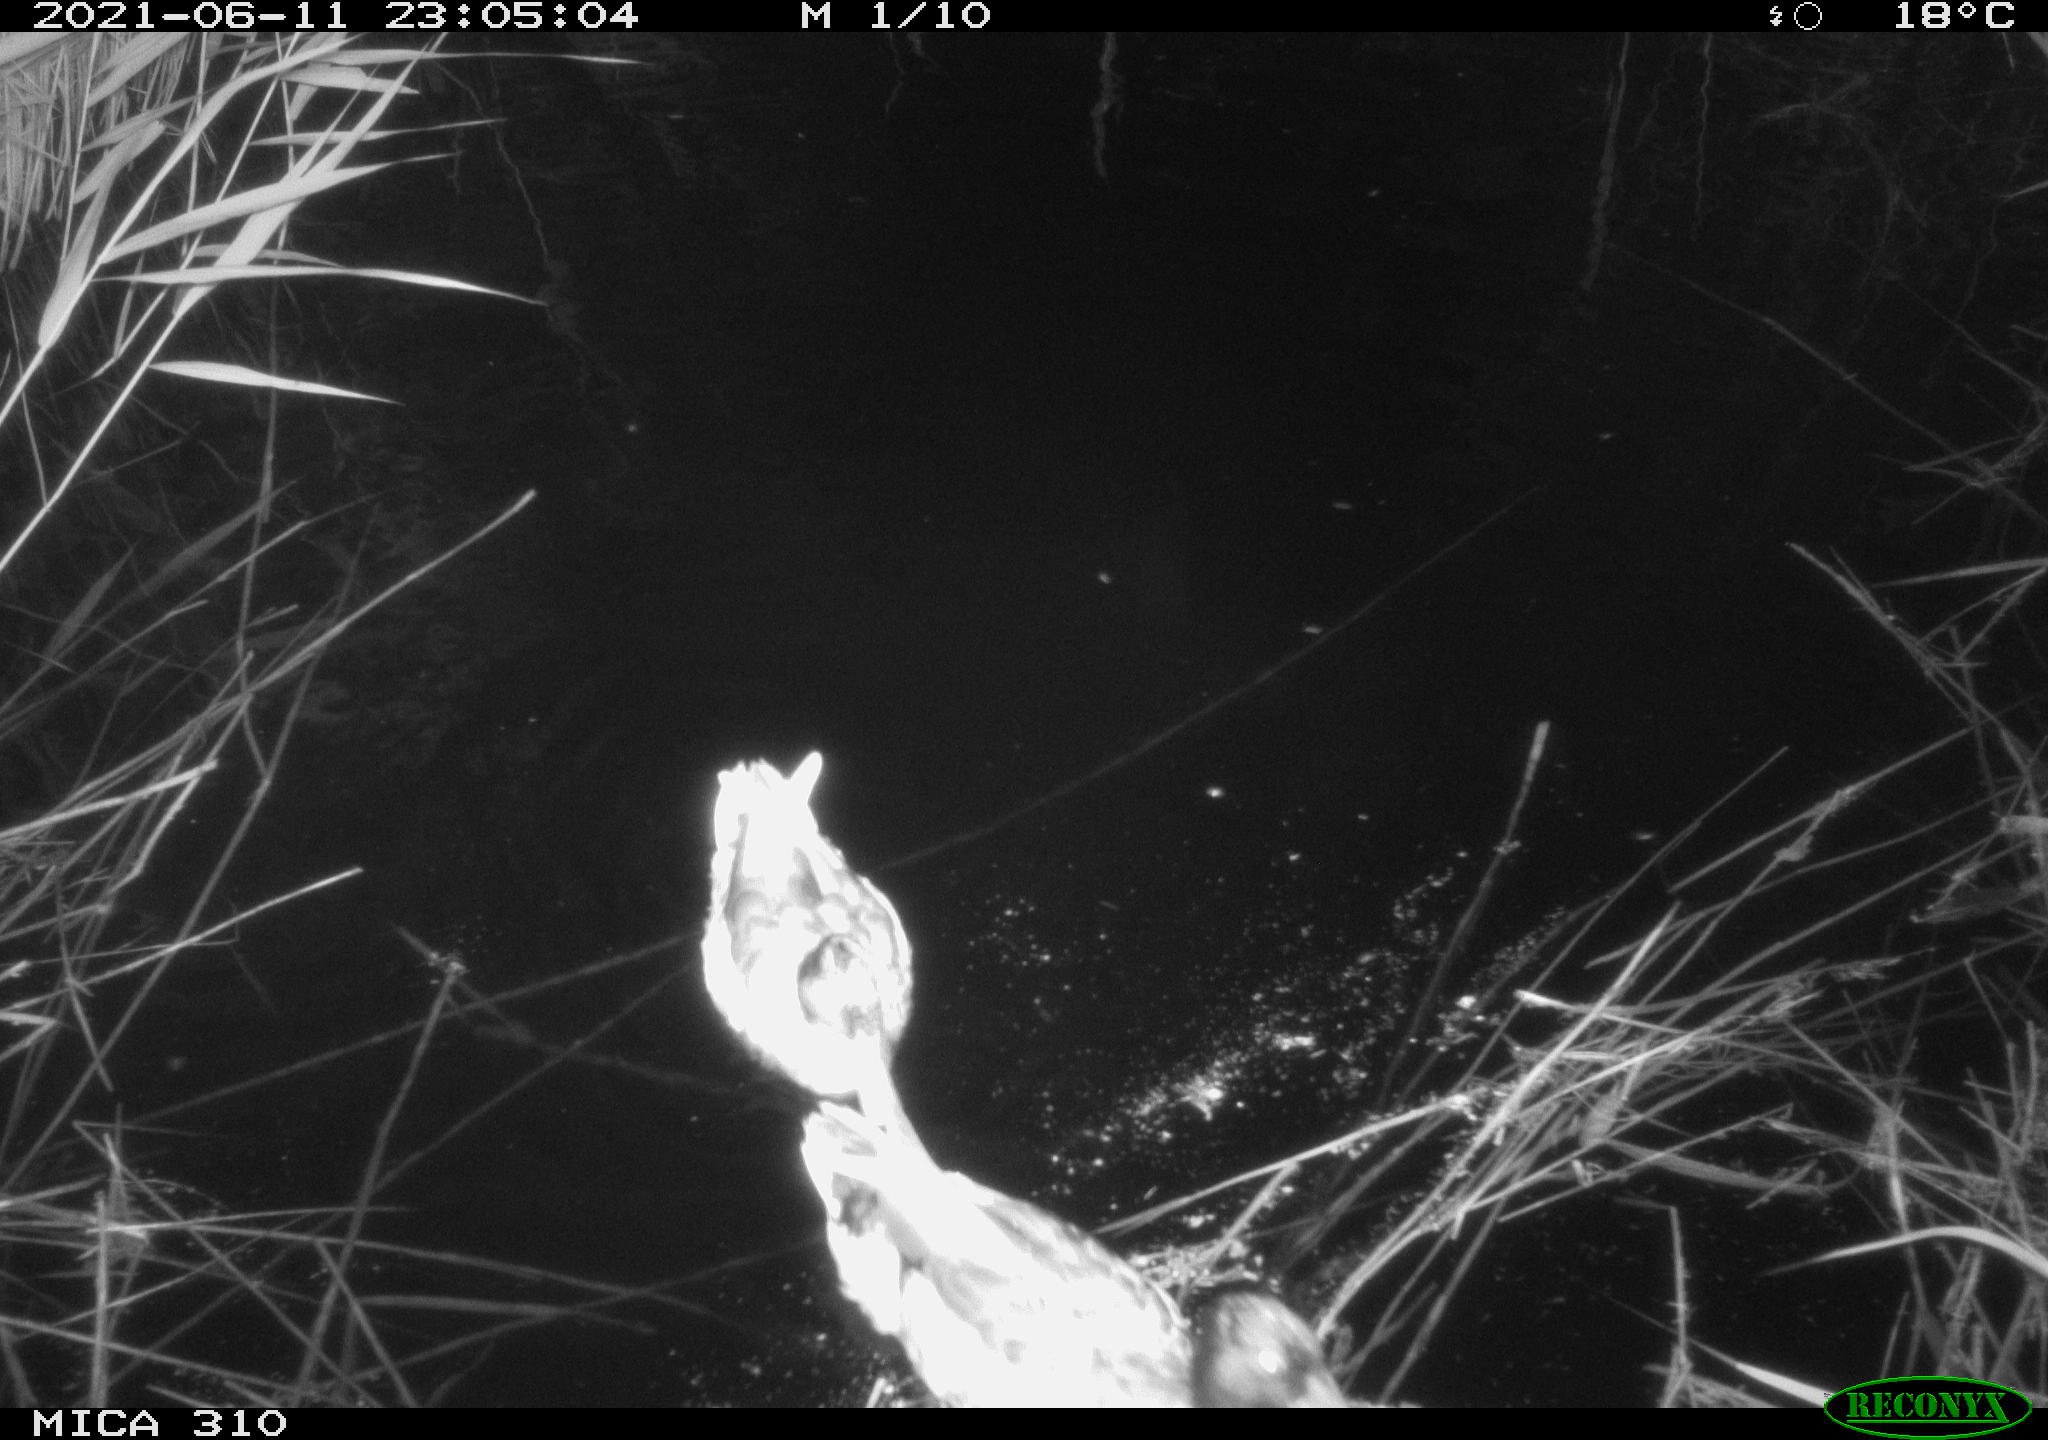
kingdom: Animalia
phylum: Chordata
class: Aves
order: Anseriformes
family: Anatidae
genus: Anas
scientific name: Anas
